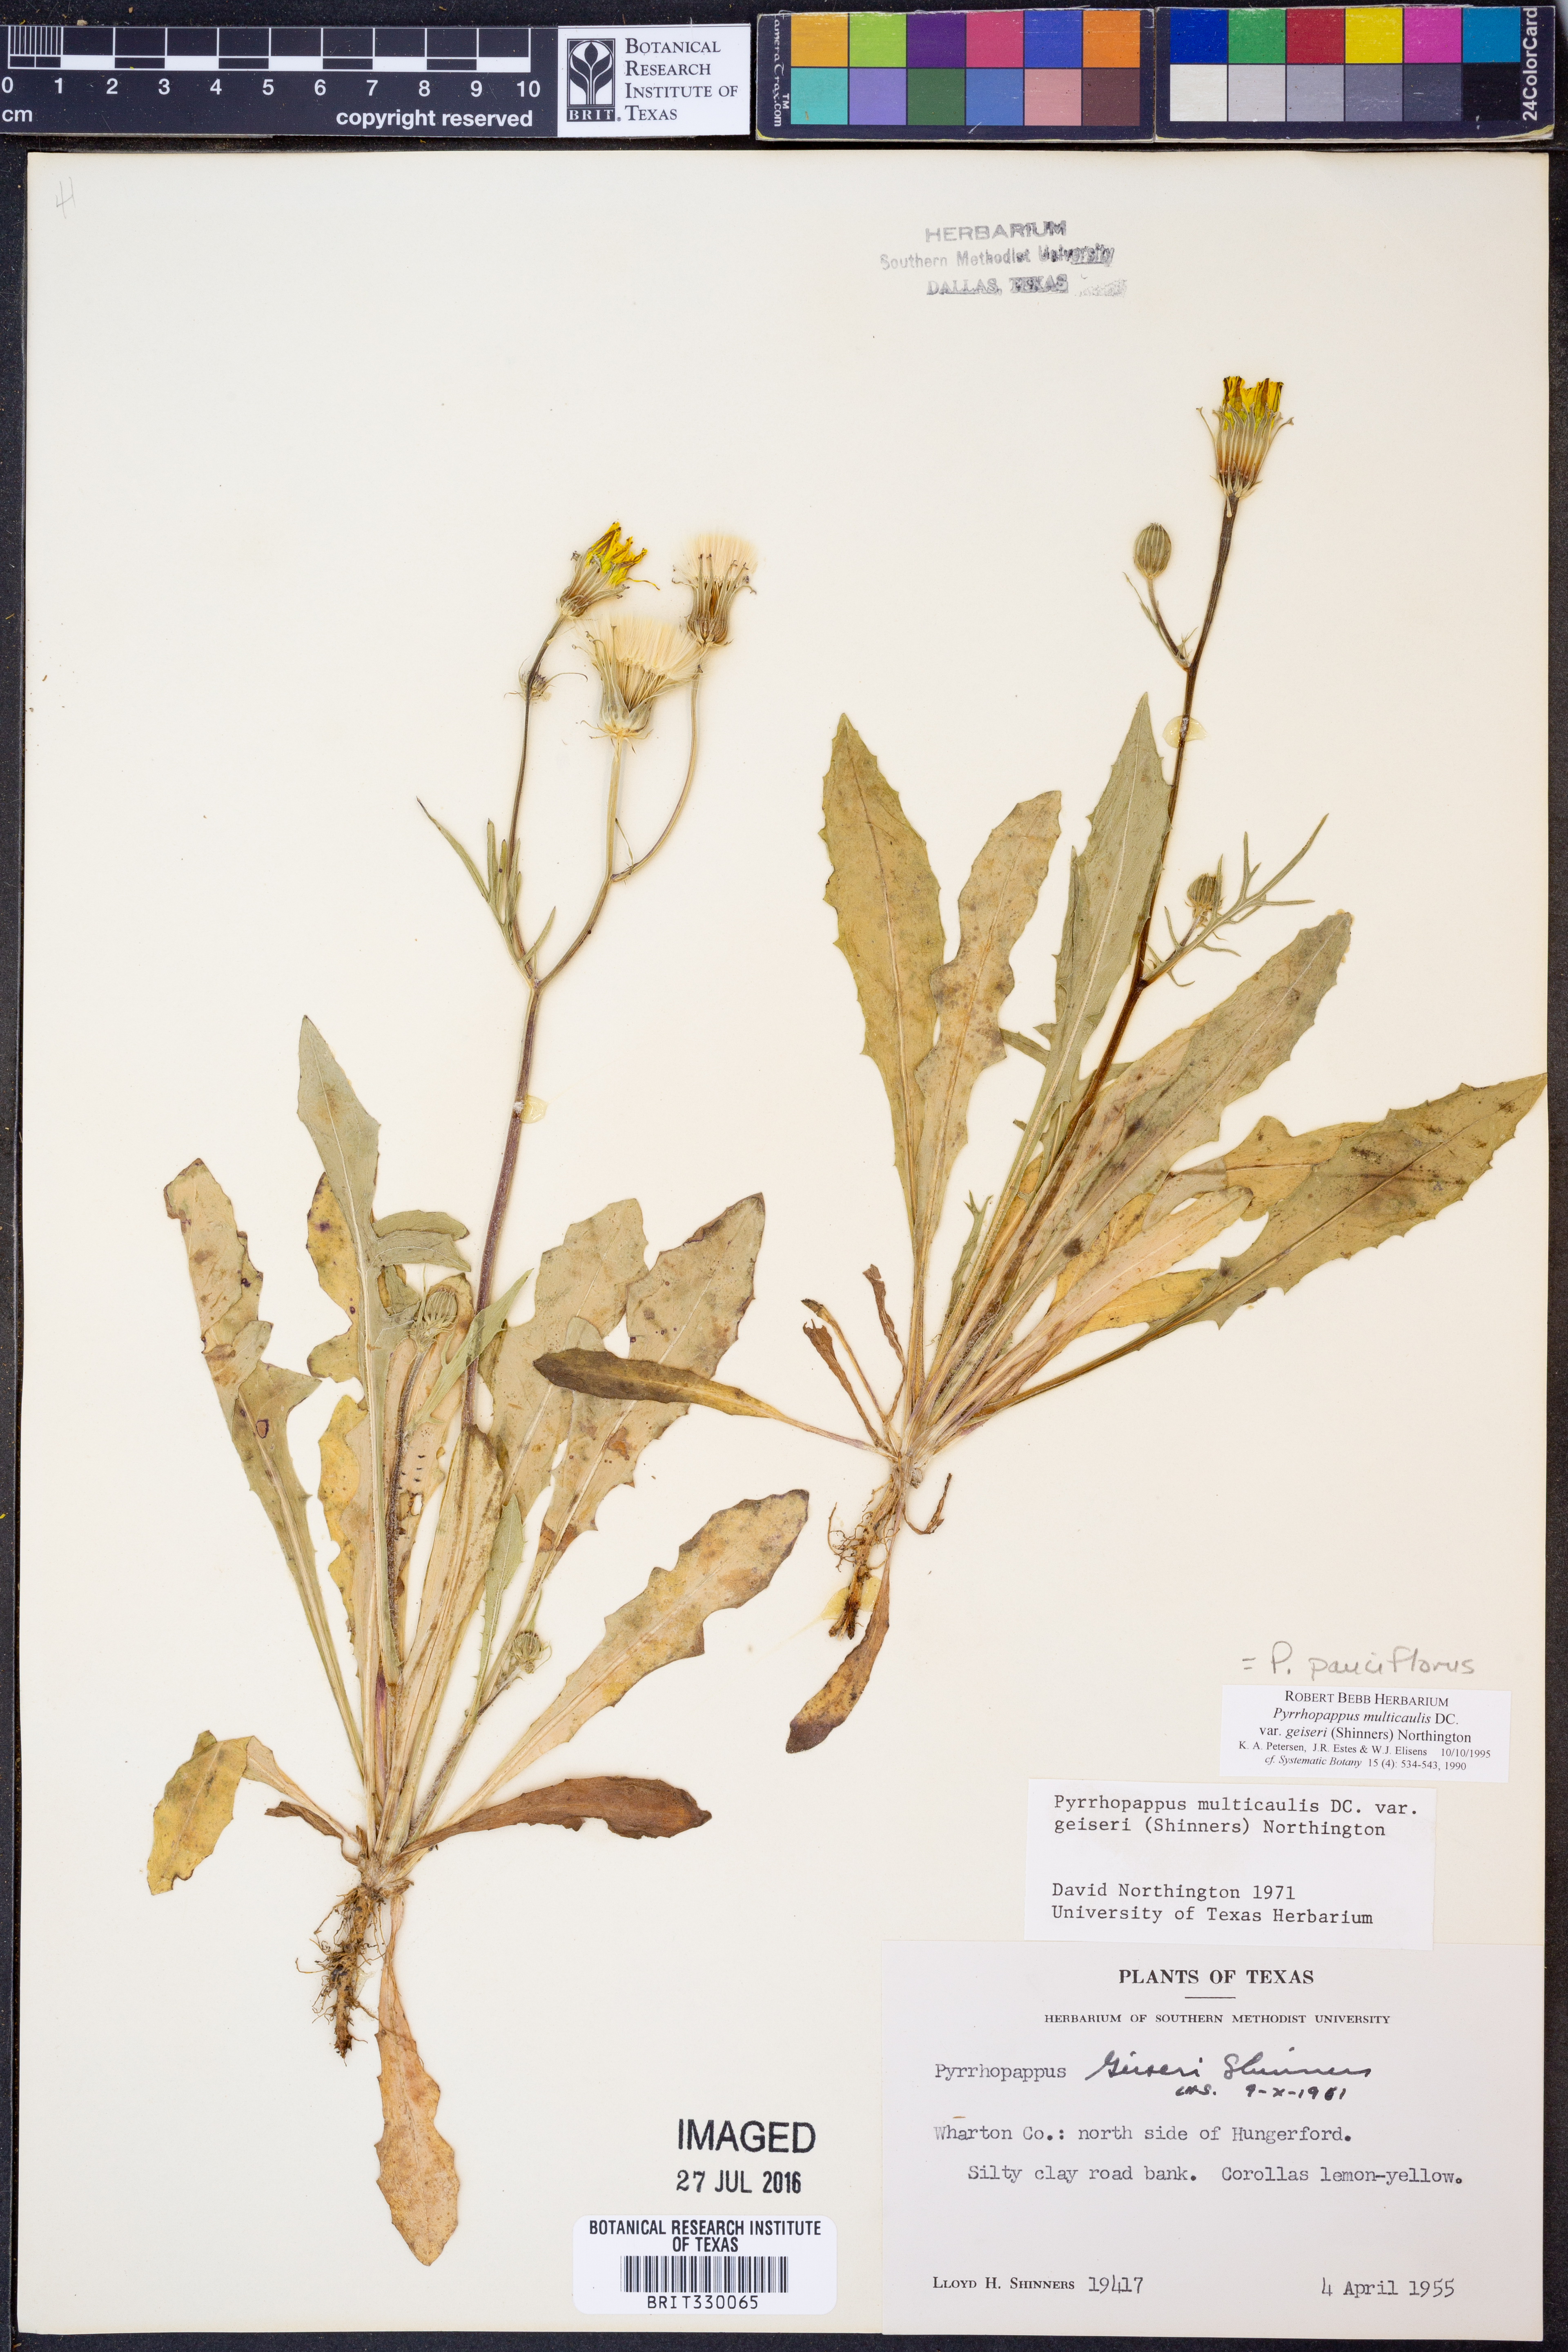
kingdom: Plantae
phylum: Tracheophyta
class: Magnoliopsida
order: Asterales
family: Asteraceae
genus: Pyrrhopappus
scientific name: Pyrrhopappus pauciflorus
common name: Texas false dandelion
